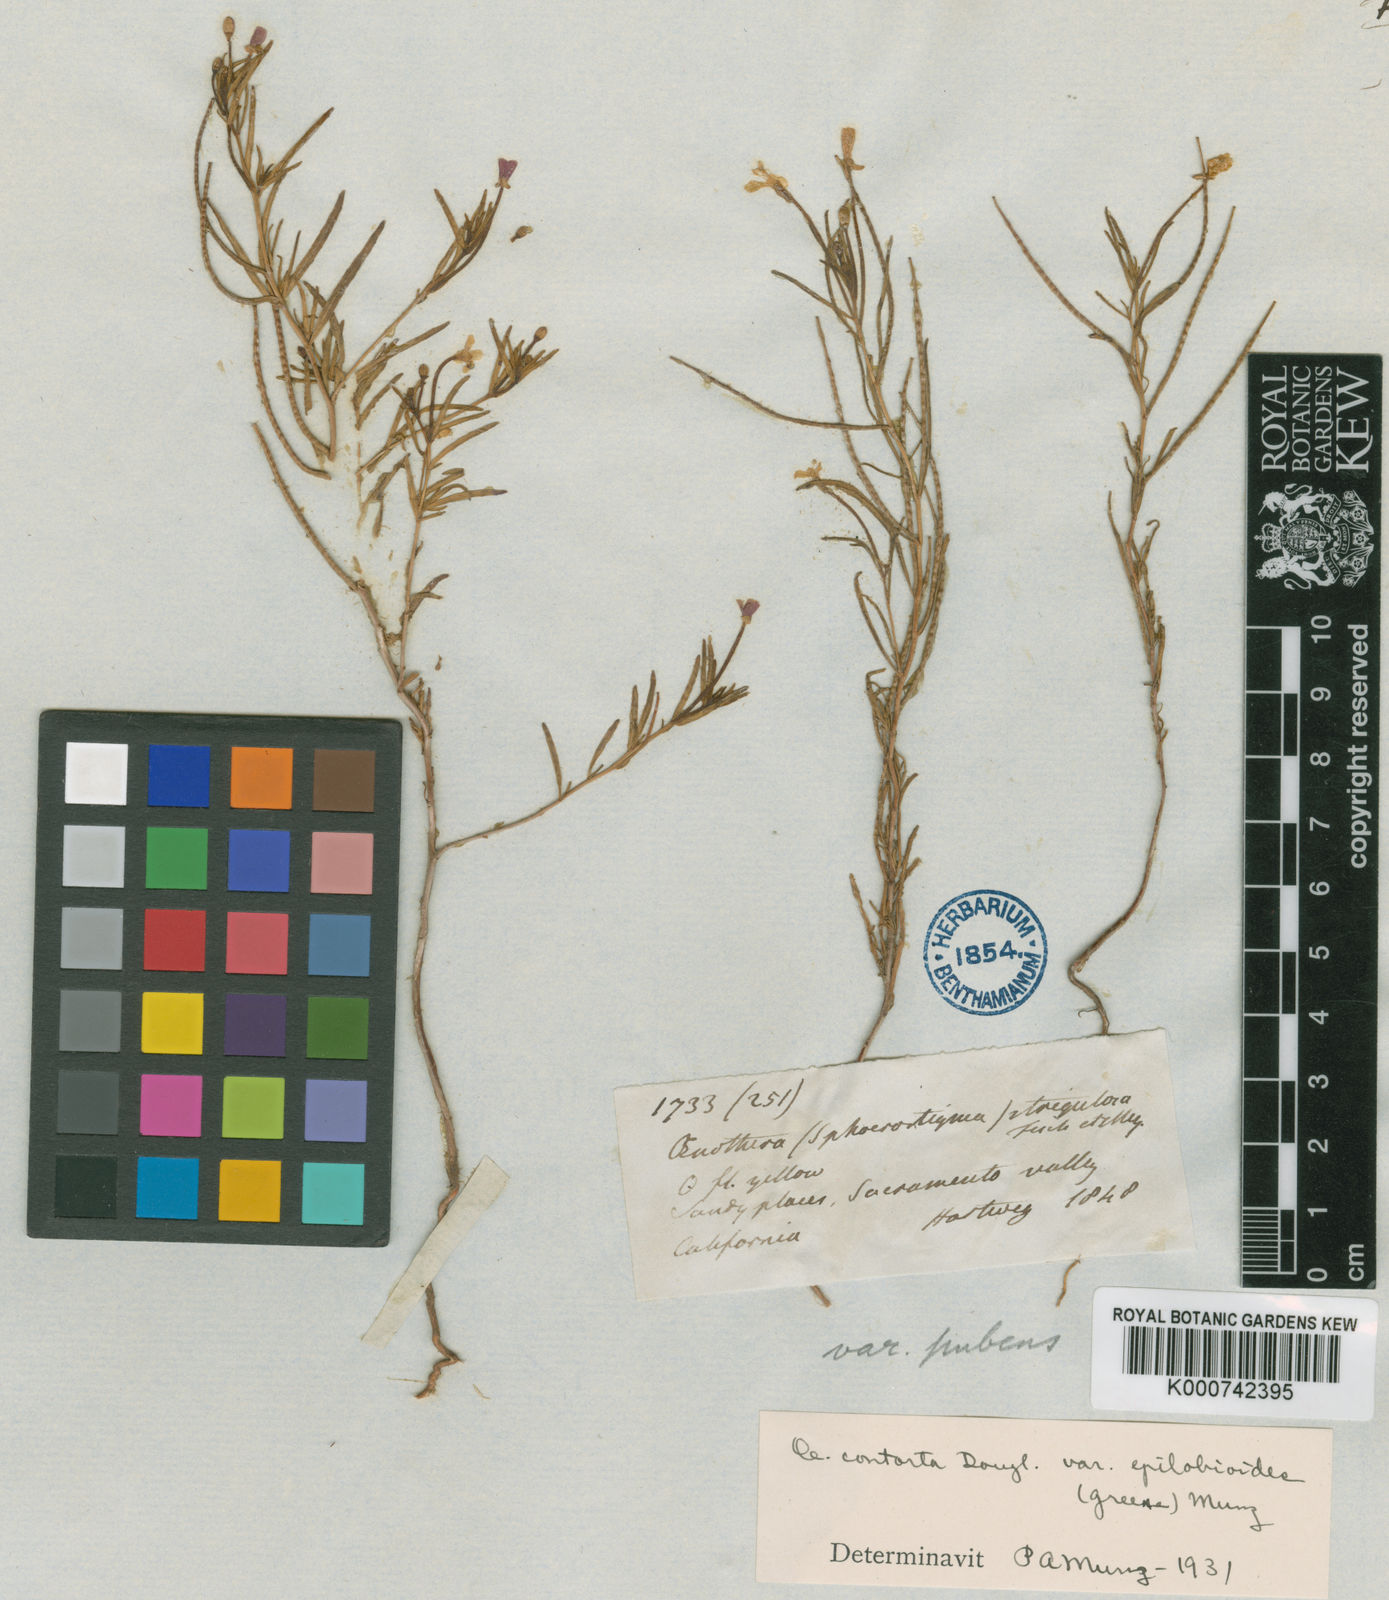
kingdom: Plantae
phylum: Tracheophyta
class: Magnoliopsida
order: Myrtales
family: Onagraceae
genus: Camissonia
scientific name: Camissonia parvula
